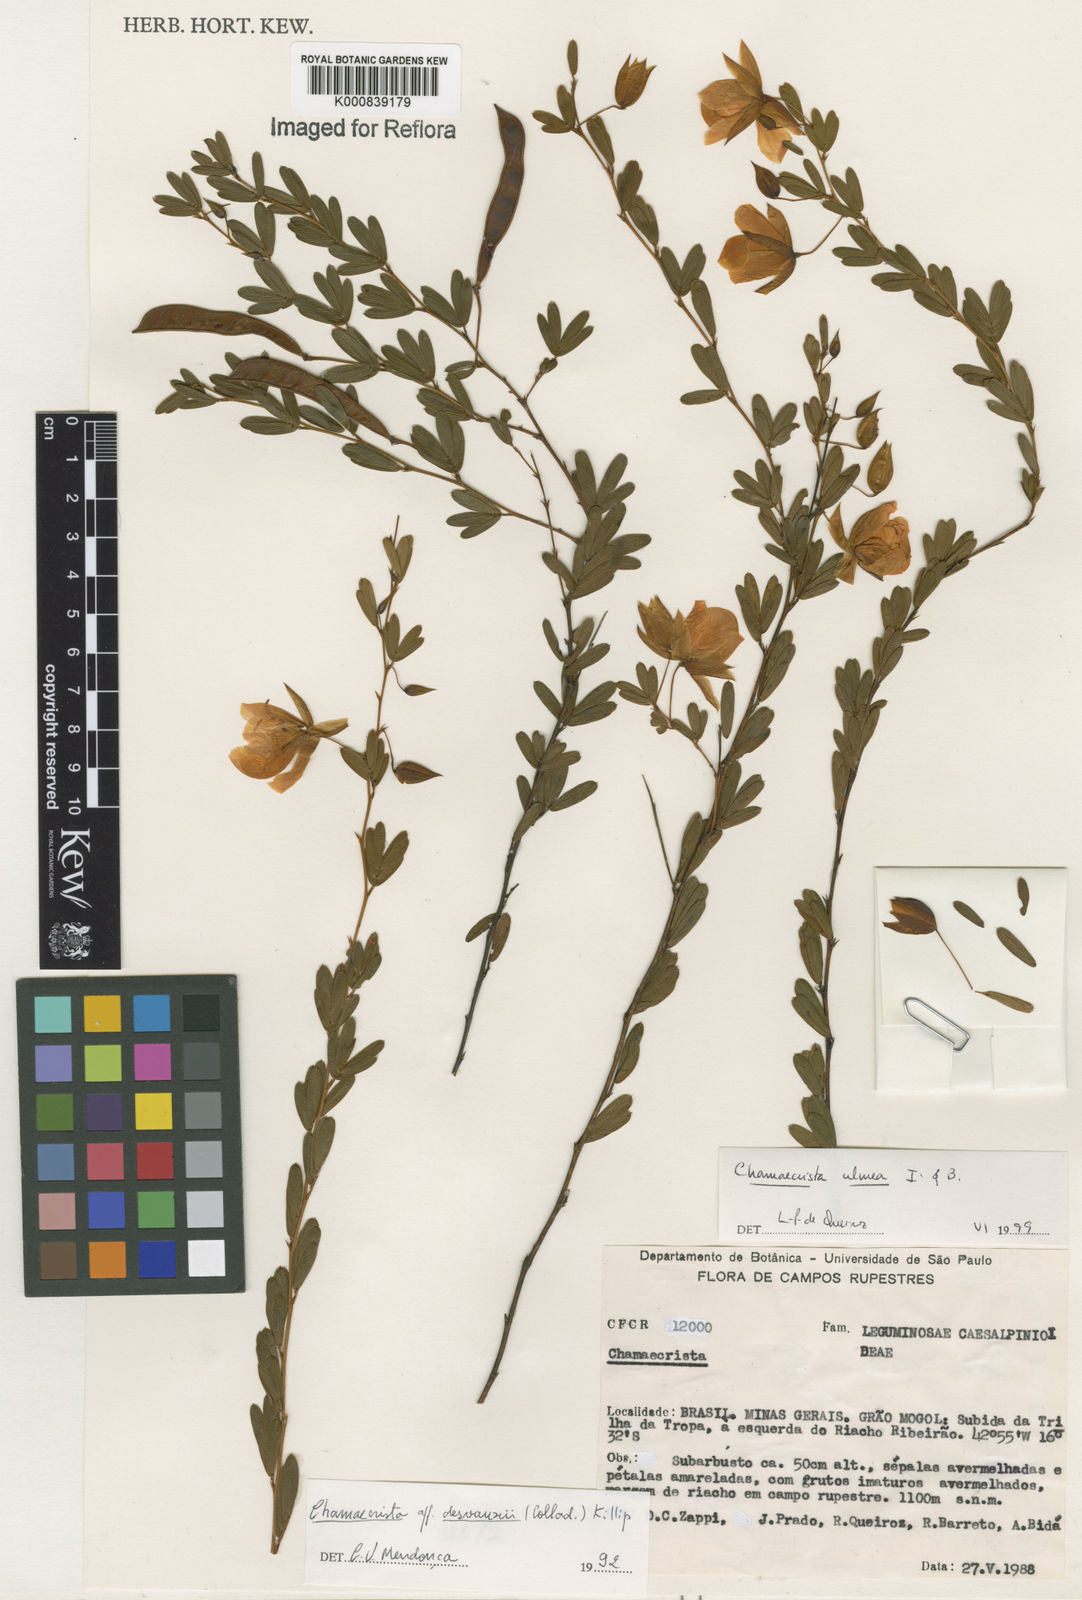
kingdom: Plantae
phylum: Tracheophyta
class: Magnoliopsida
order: Fabales
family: Fabaceae
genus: Chamaecrista
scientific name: Chamaecrista ulmea
